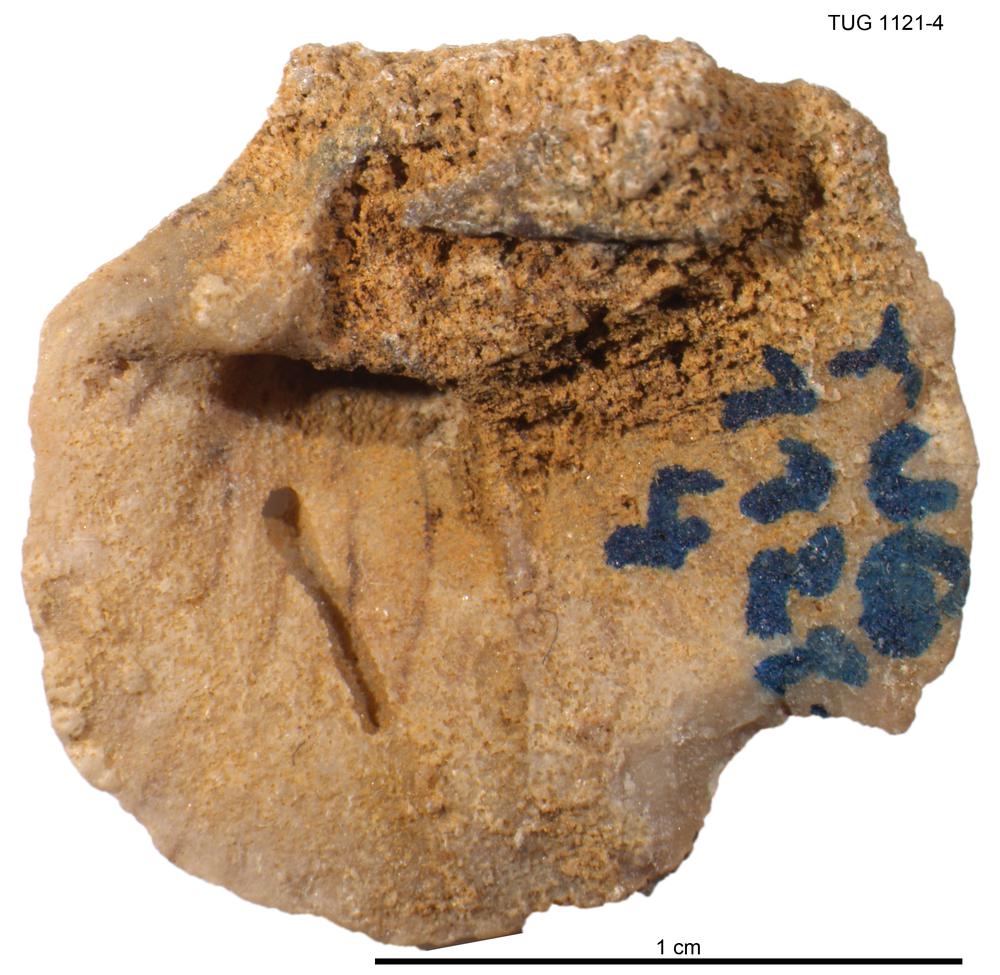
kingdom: Animalia
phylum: Brachiopoda
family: Gonambonitidae
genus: Estlandia
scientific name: Estlandia Orthisina marginata
